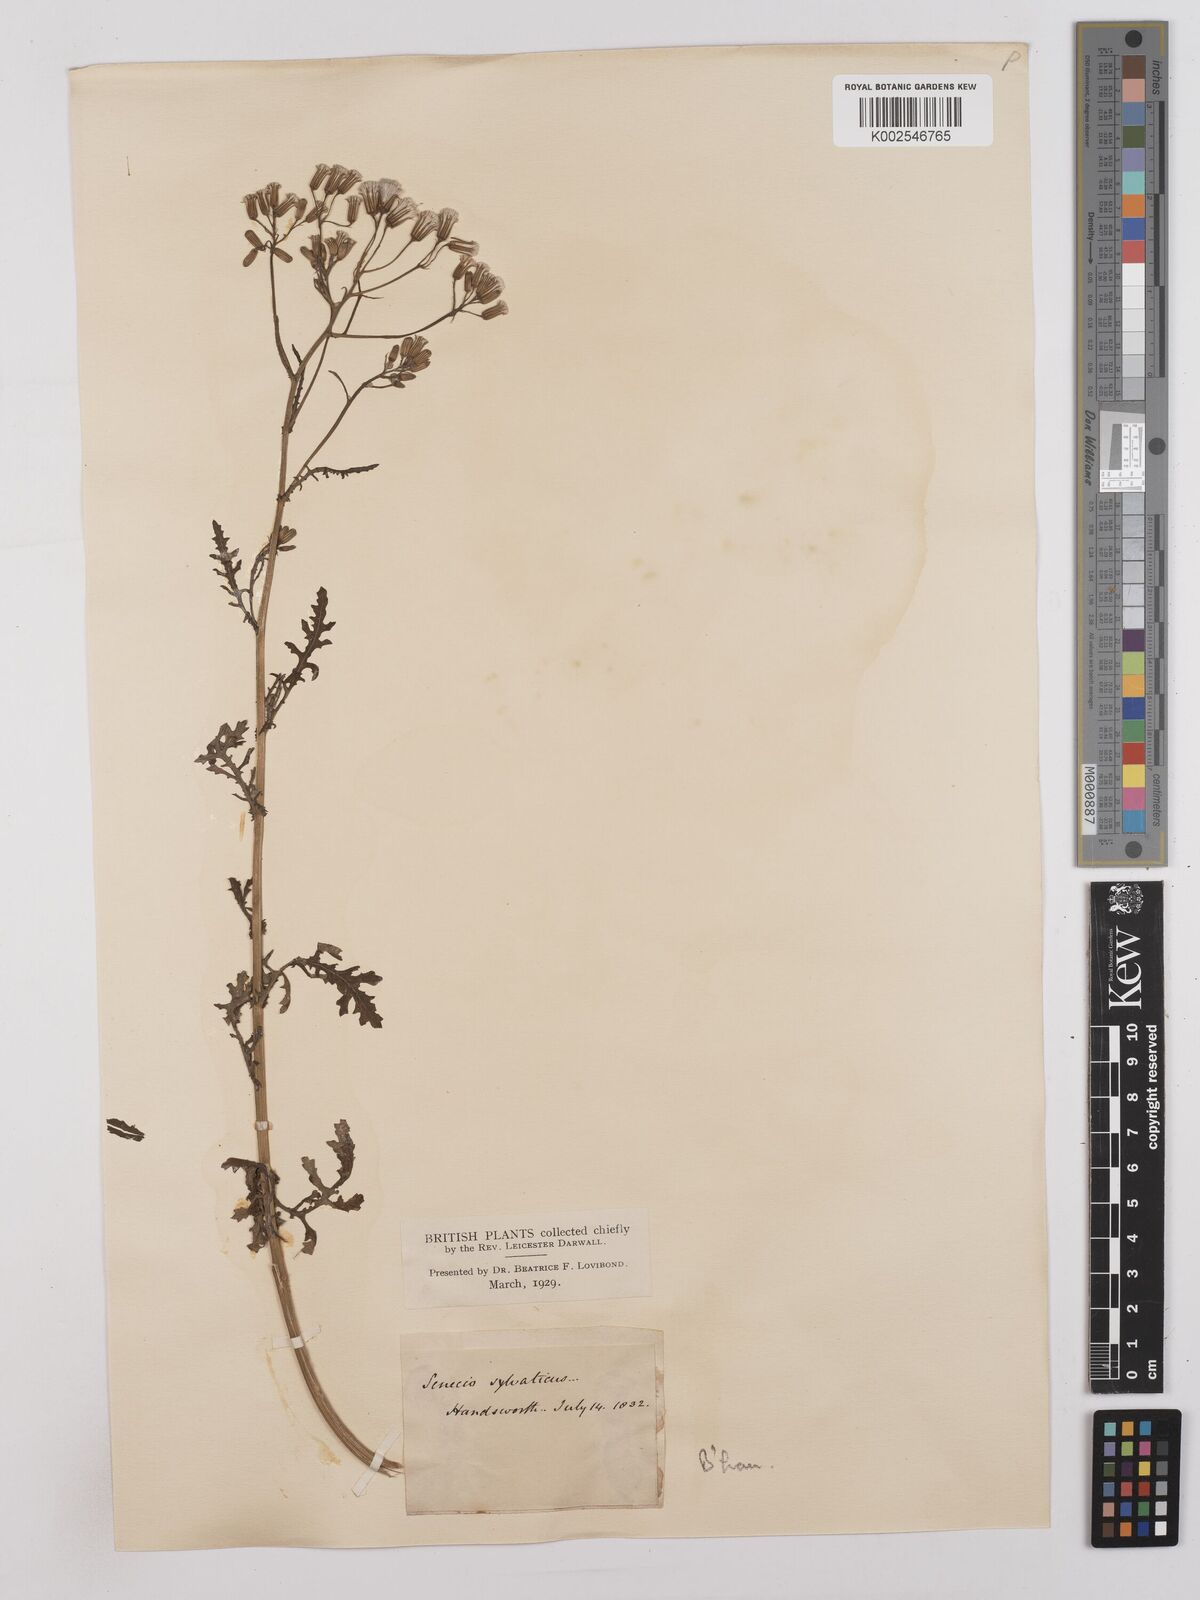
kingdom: Plantae
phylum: Tracheophyta
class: Magnoliopsida
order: Asterales
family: Asteraceae
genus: Senecio
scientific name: Senecio sylvaticus
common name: Woodland ragwort
